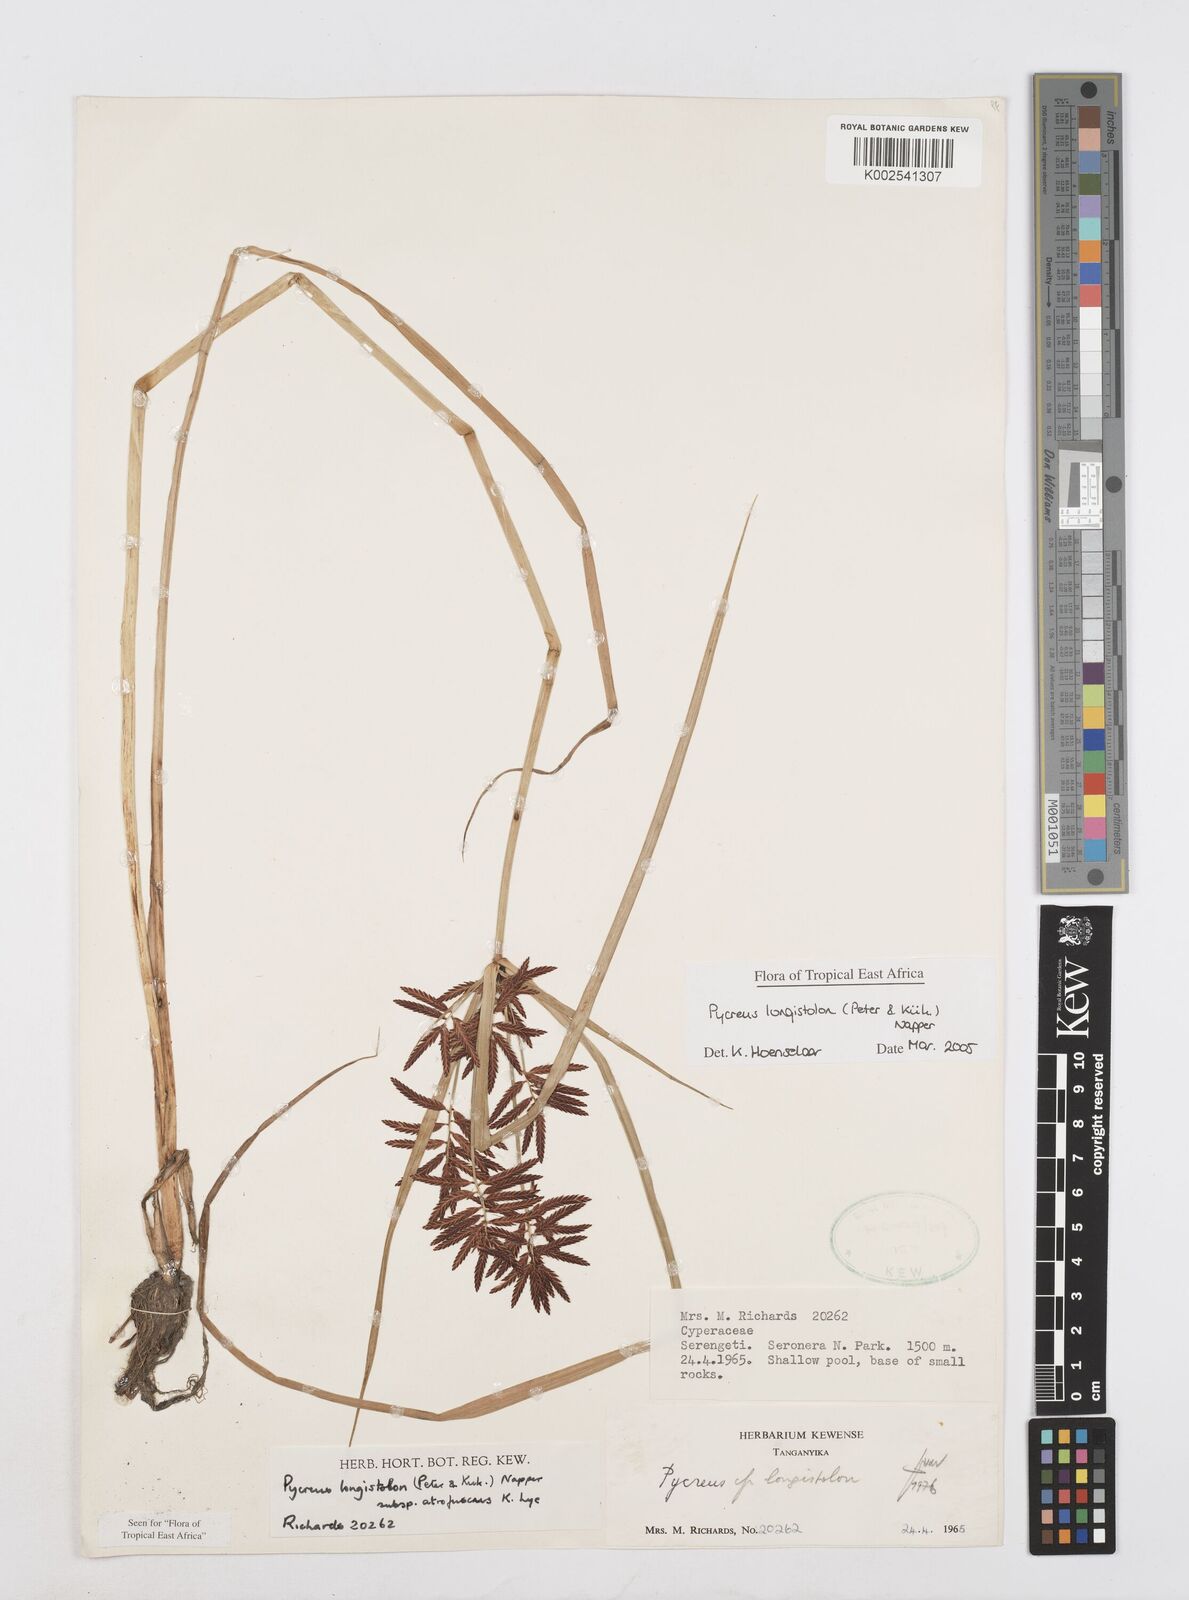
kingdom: Plantae
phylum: Tracheophyta
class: Liliopsida
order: Poales
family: Cyperaceae
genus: Cyperus
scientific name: Cyperus chrysanthus
